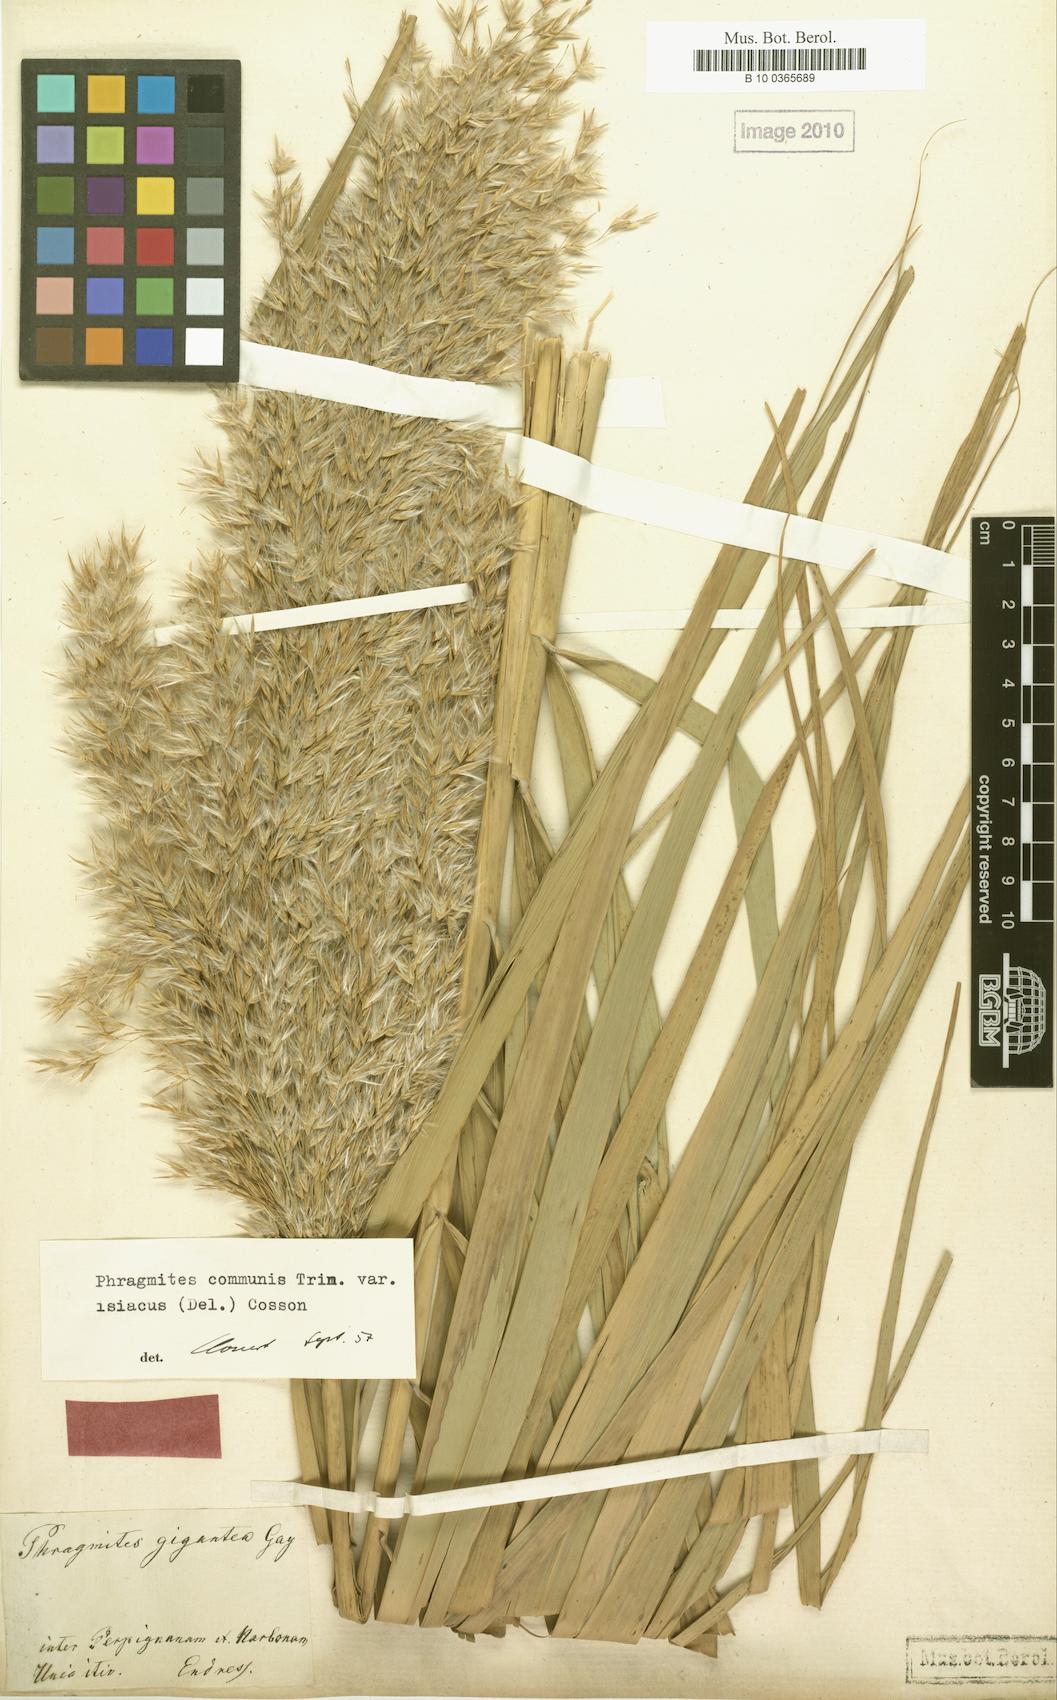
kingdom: Plantae
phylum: Tracheophyta
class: Liliopsida
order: Poales
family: Poaceae
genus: Phragmites
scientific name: Phragmites australis
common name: Common reed
